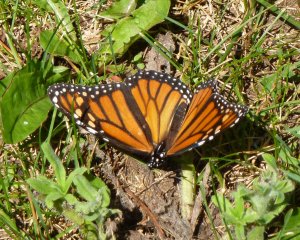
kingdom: Animalia
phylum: Arthropoda
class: Insecta
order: Lepidoptera
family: Nymphalidae
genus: Danaus
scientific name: Danaus plexippus
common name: Monarch
